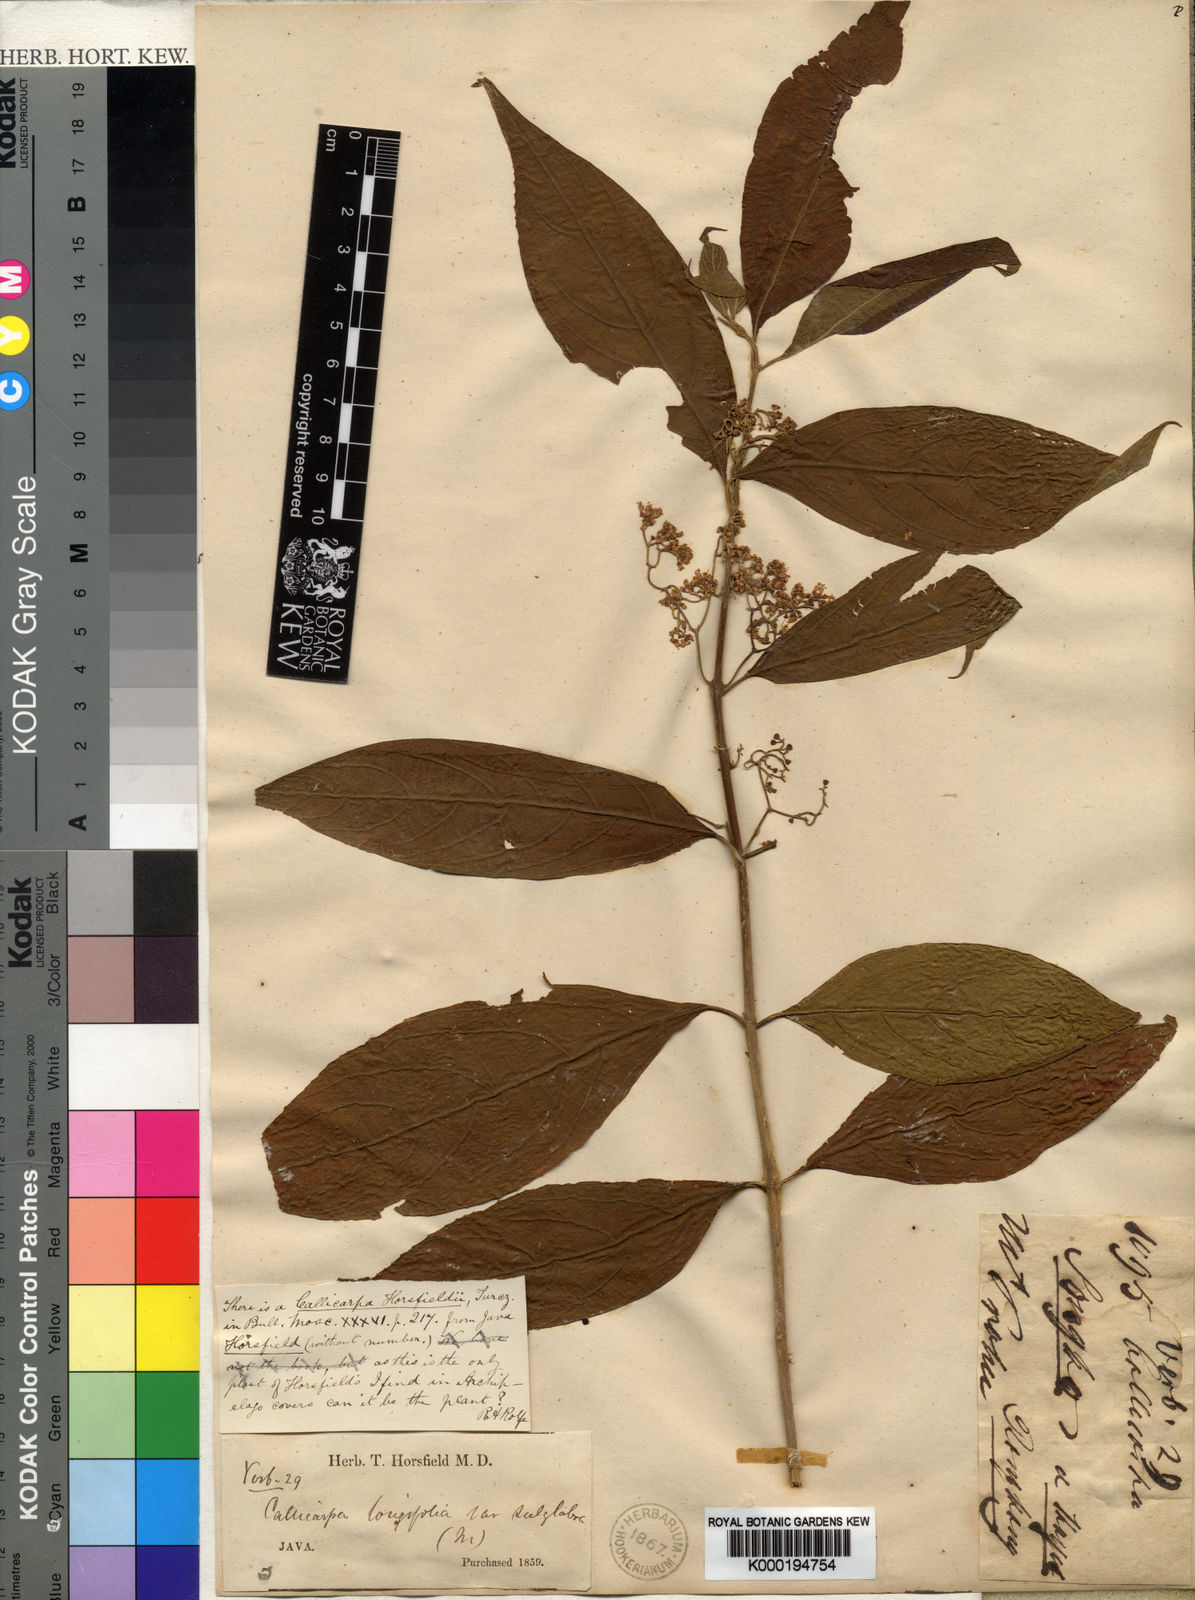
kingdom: Plantae
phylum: Tracheophyta
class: Magnoliopsida
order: Lamiales
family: Lamiaceae
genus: Callicarpa
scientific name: Callicarpa longifolia
